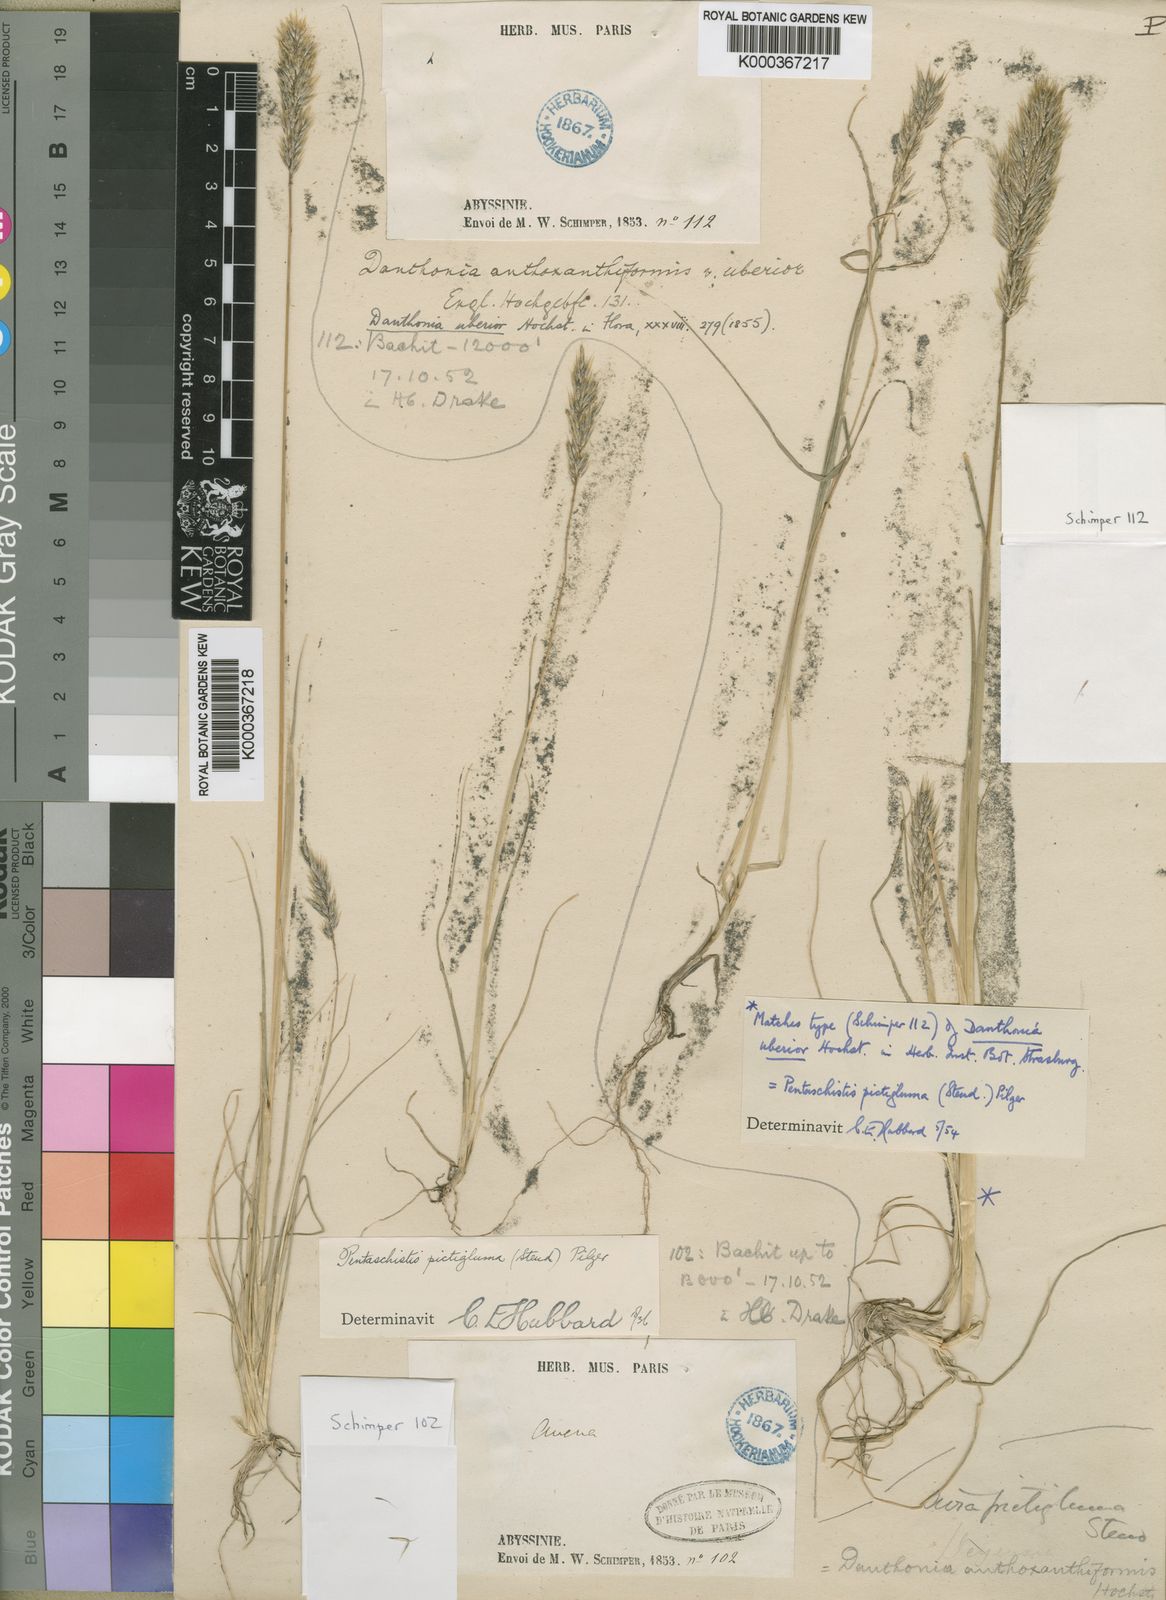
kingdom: Plantae
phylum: Tracheophyta
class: Liliopsida
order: Poales
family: Poaceae
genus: Pentameris
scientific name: Pentameris pictigluma
